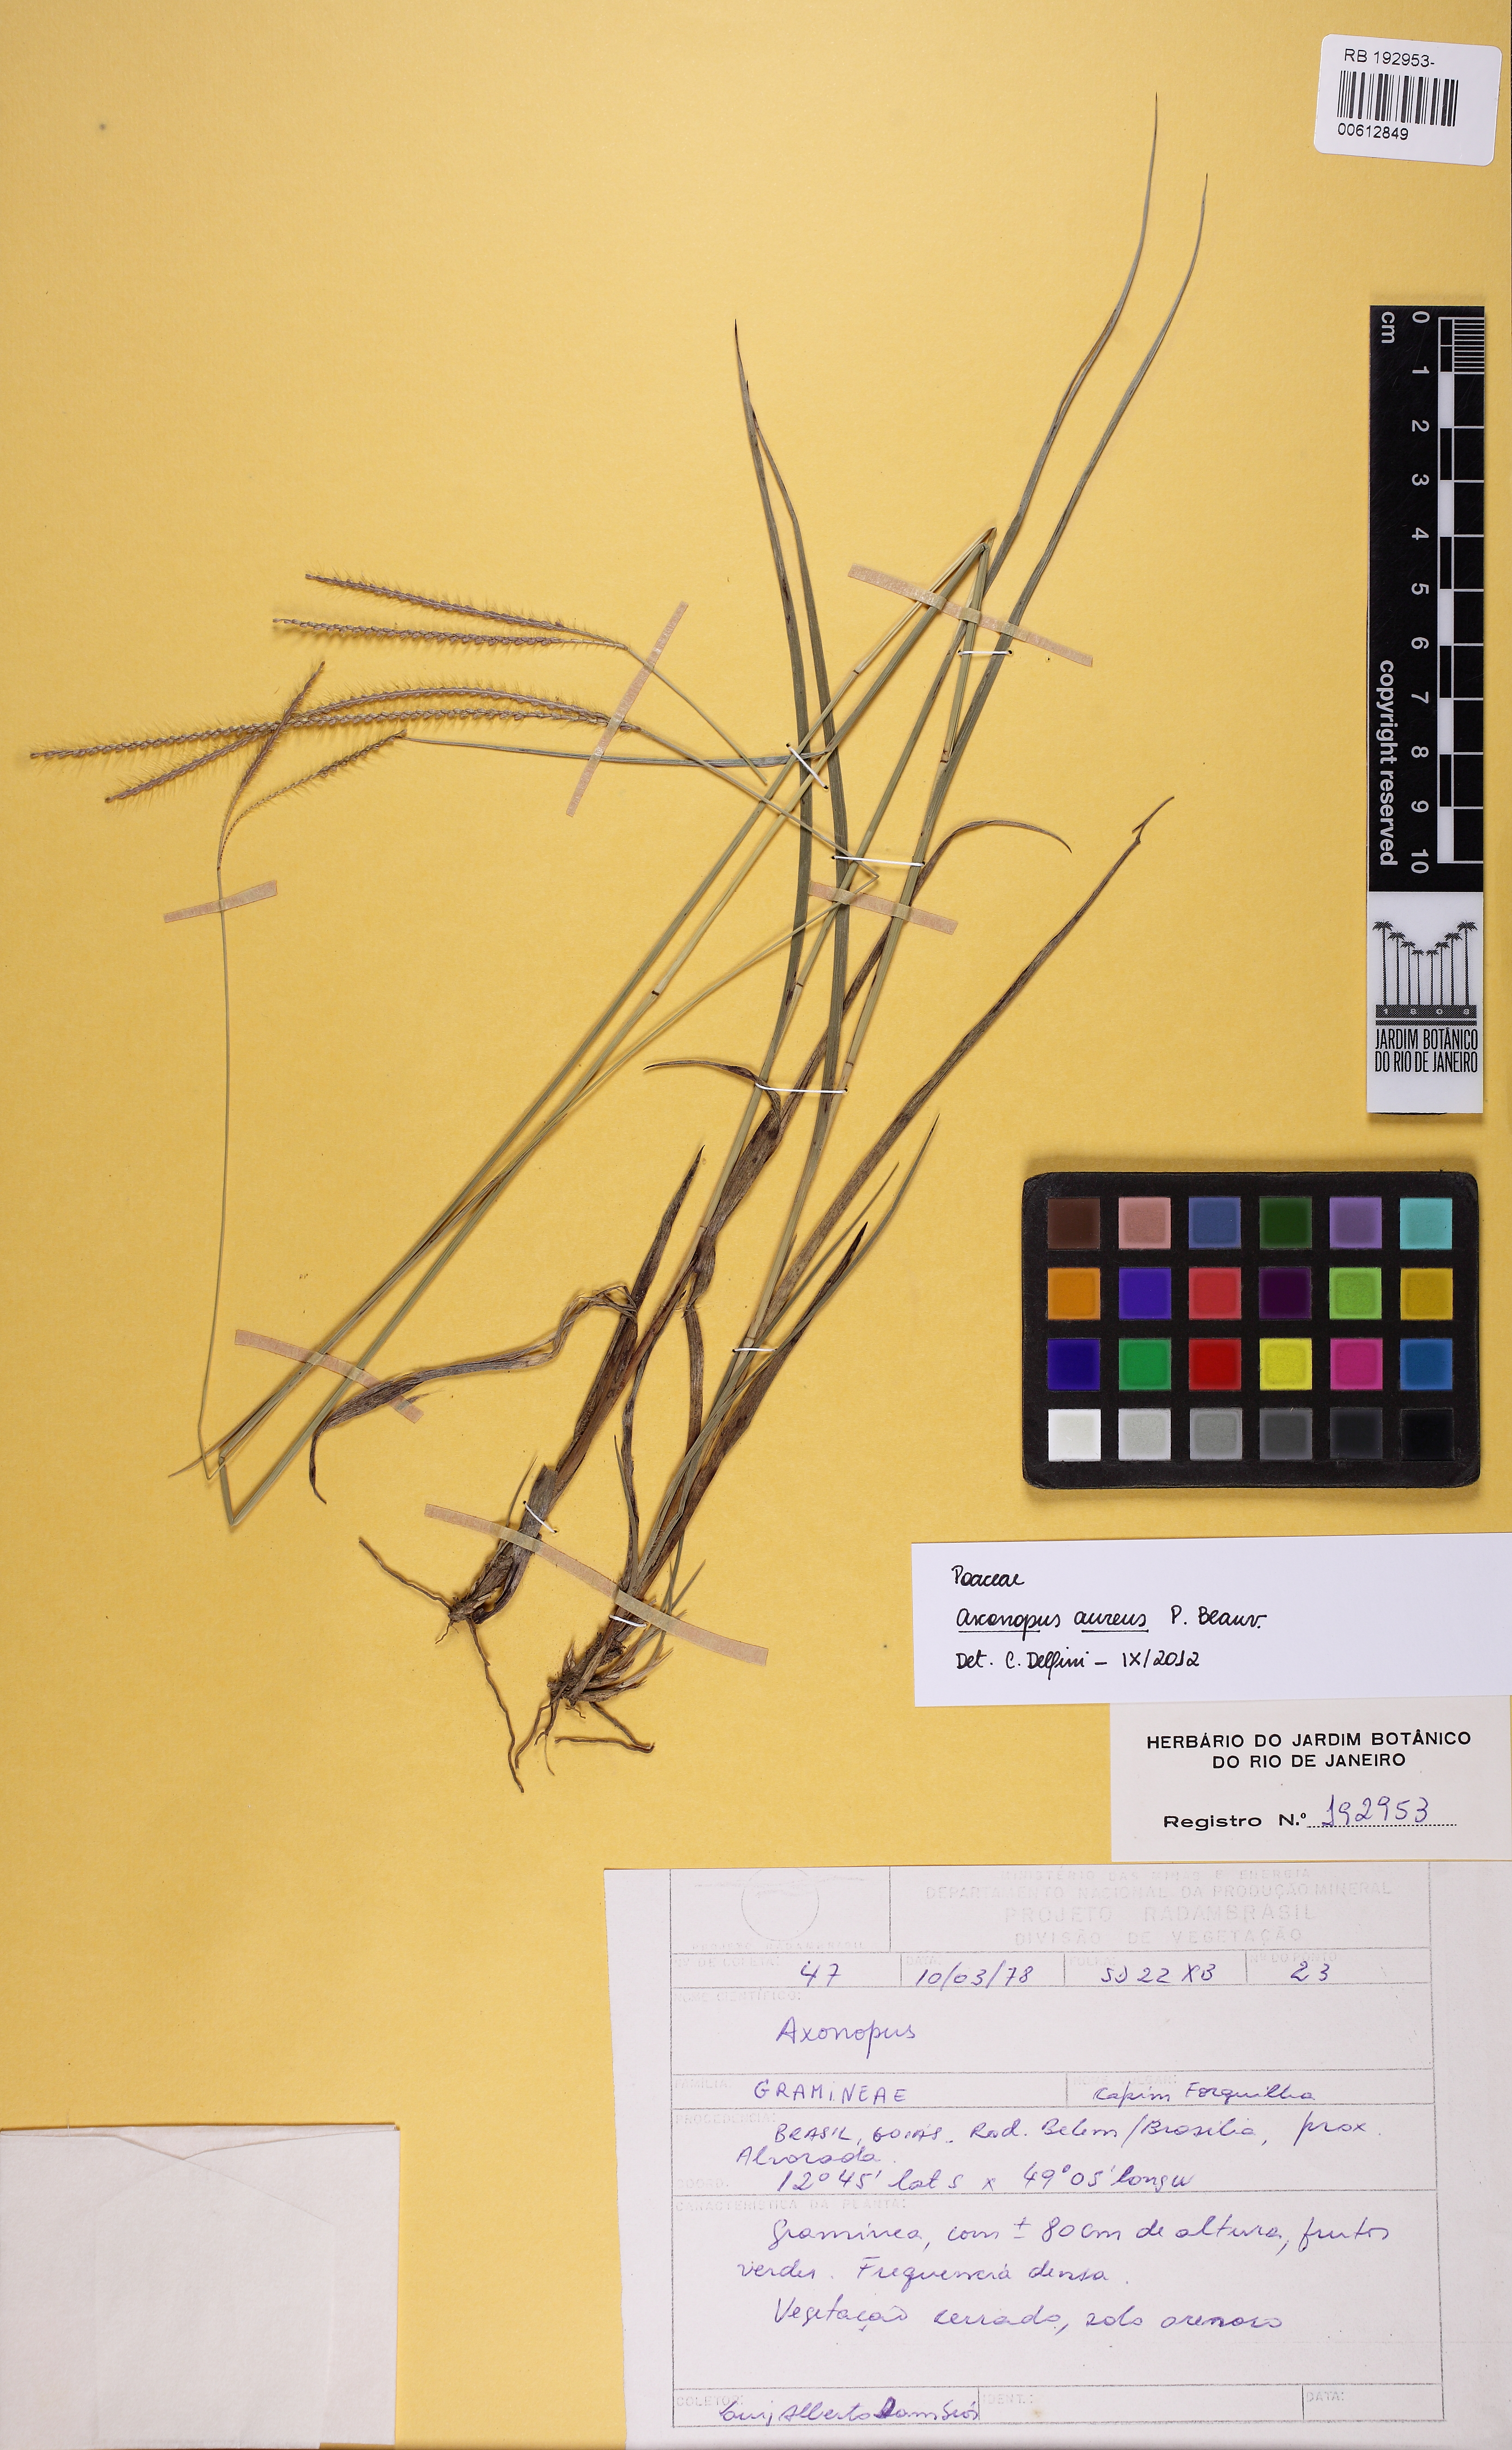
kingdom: Plantae
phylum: Tracheophyta
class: Liliopsida
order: Poales
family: Poaceae
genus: Axonopus
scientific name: Axonopus aureus
